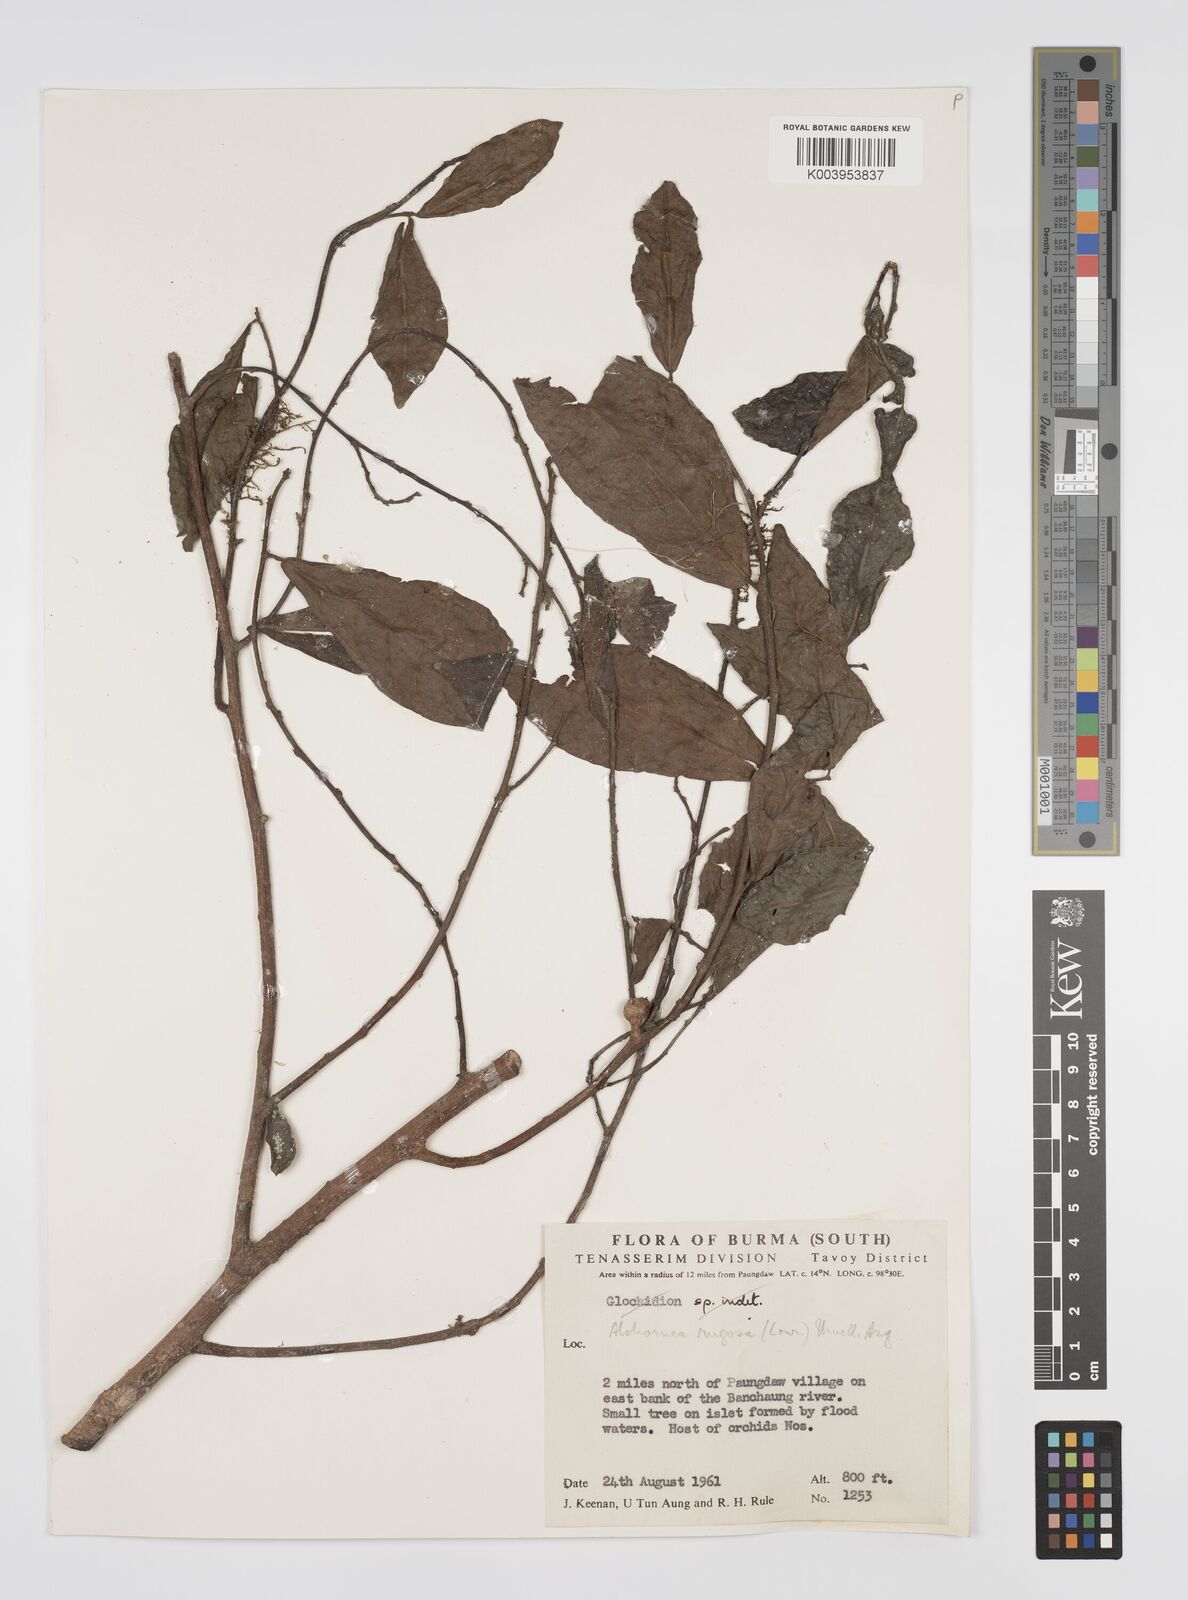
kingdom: Plantae
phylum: Tracheophyta
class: Magnoliopsida
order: Malpighiales
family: Euphorbiaceae
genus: Alchornea
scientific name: Alchornea rugosa
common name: Alchorntree
